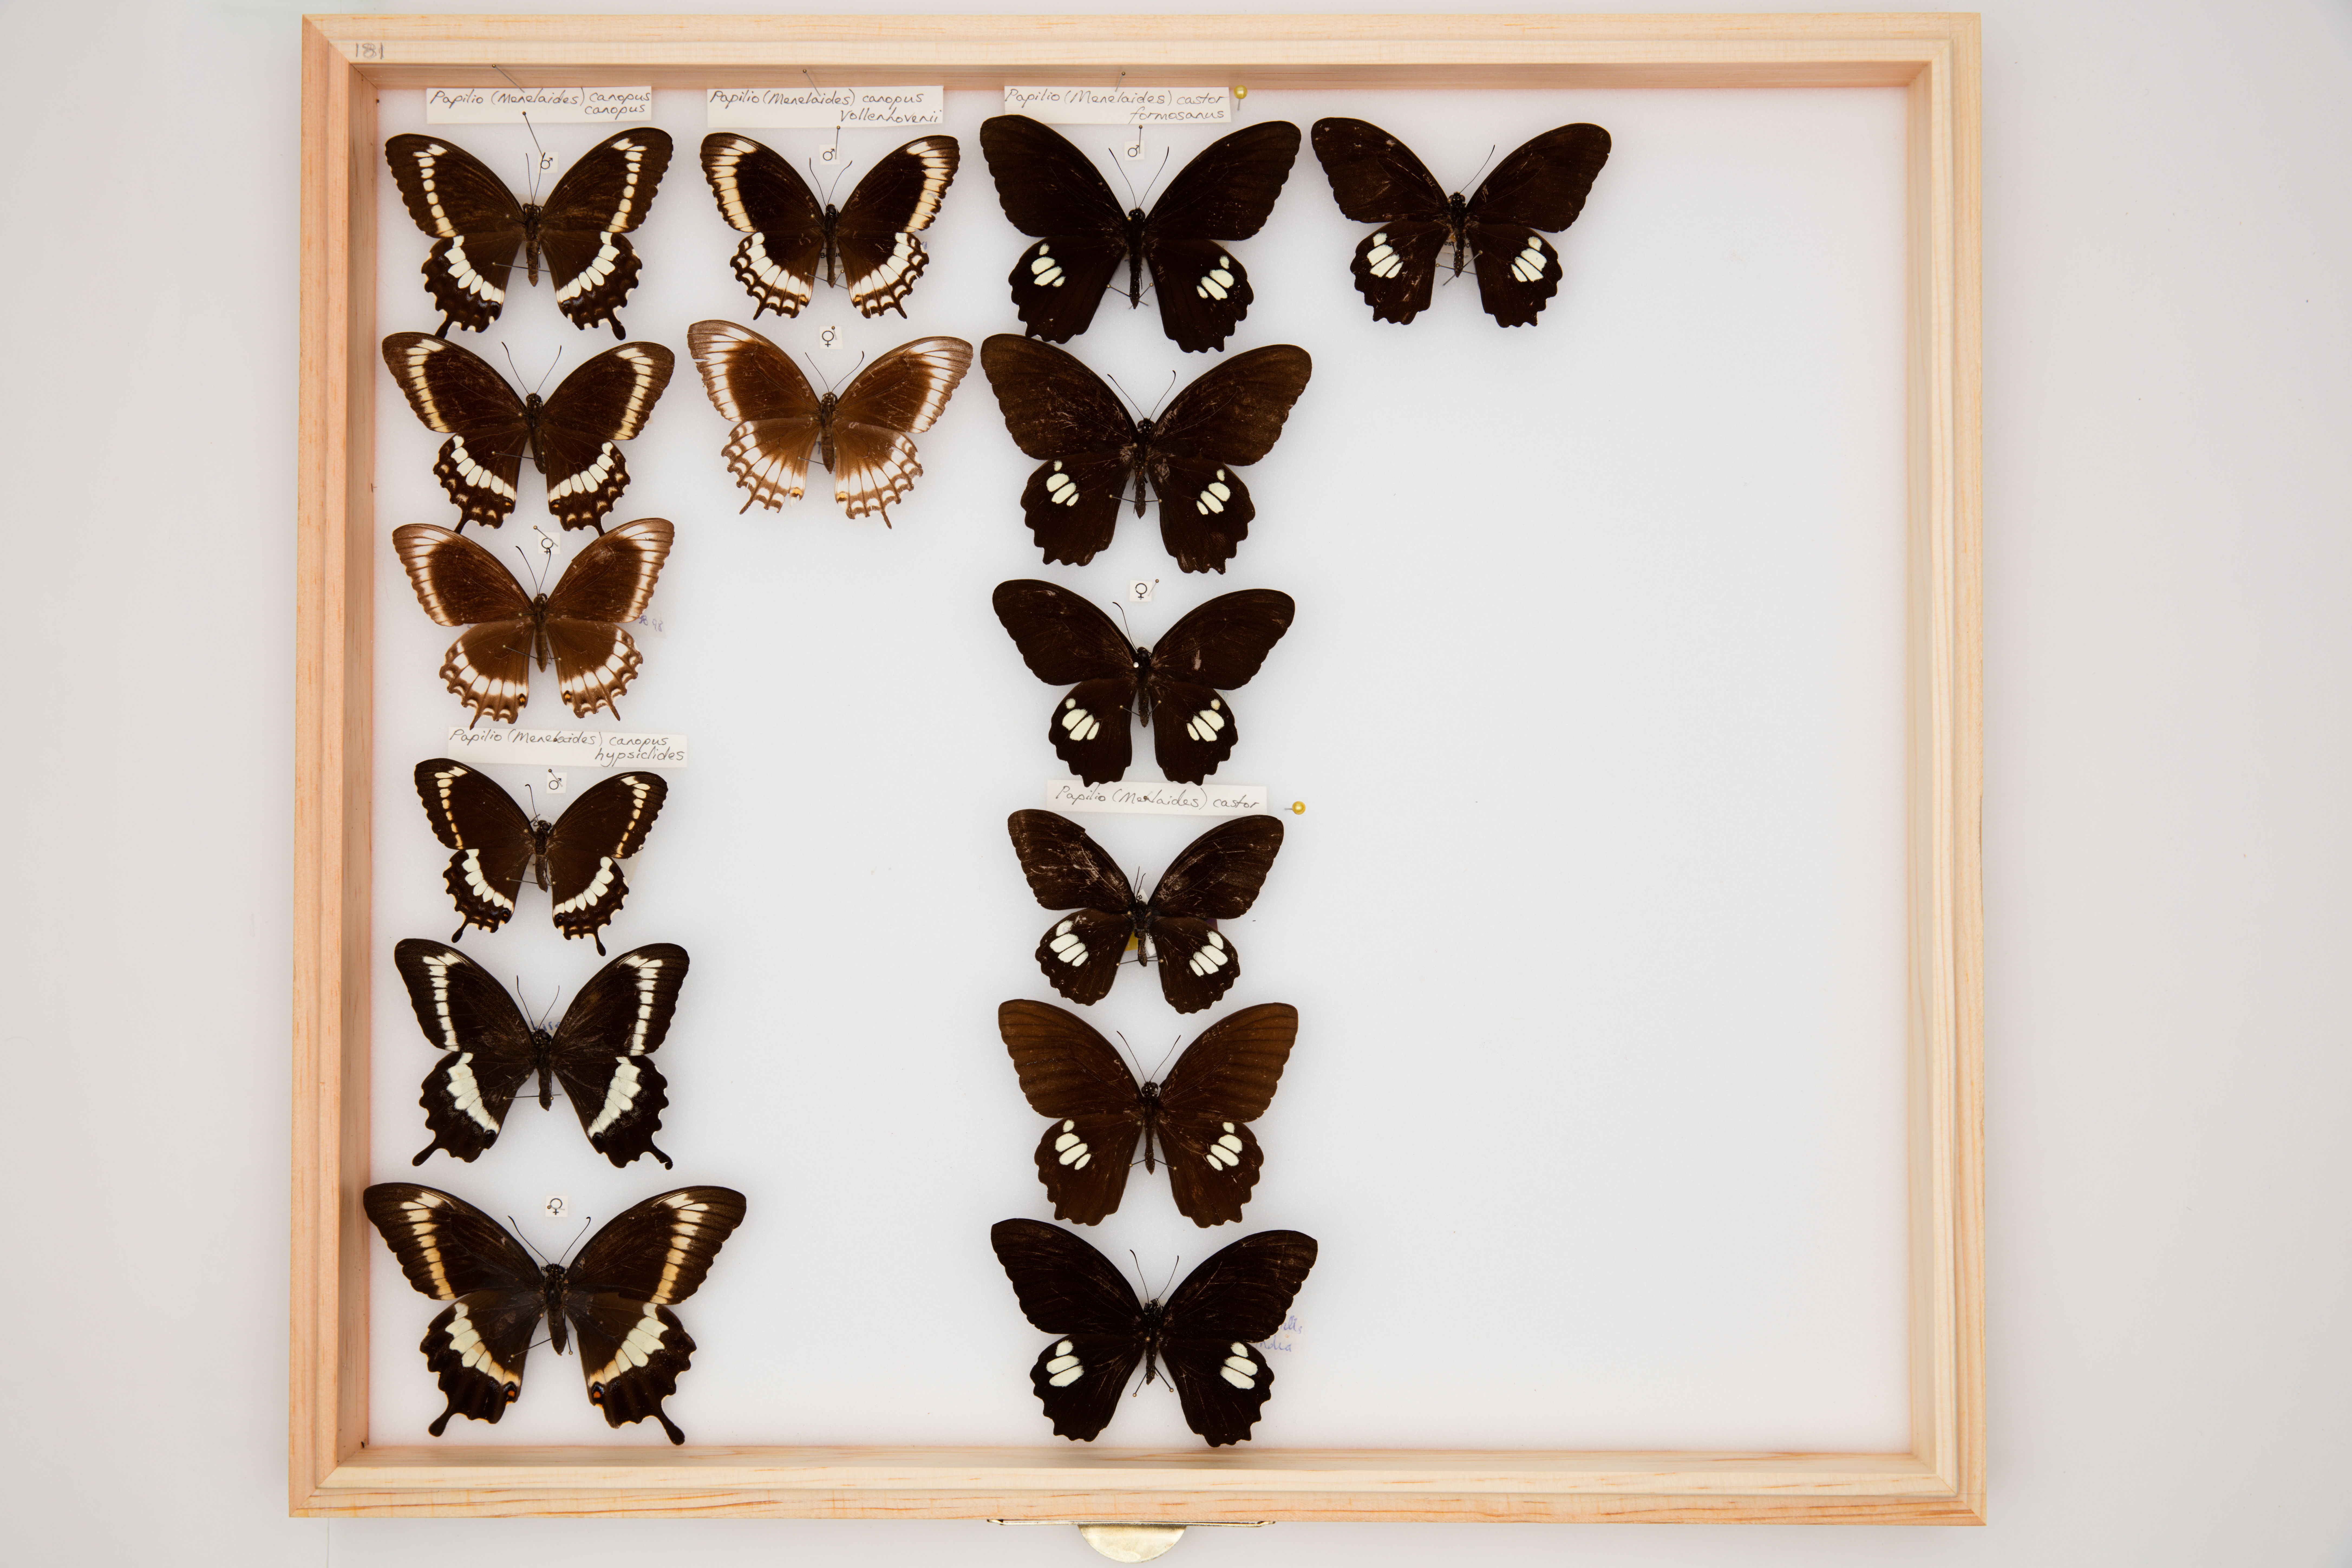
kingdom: Animalia
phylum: Arthropoda
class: Insecta
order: Lepidoptera
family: Papilionidae
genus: Papilio
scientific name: Papilio fuscus
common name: Fuscous swallowtail
